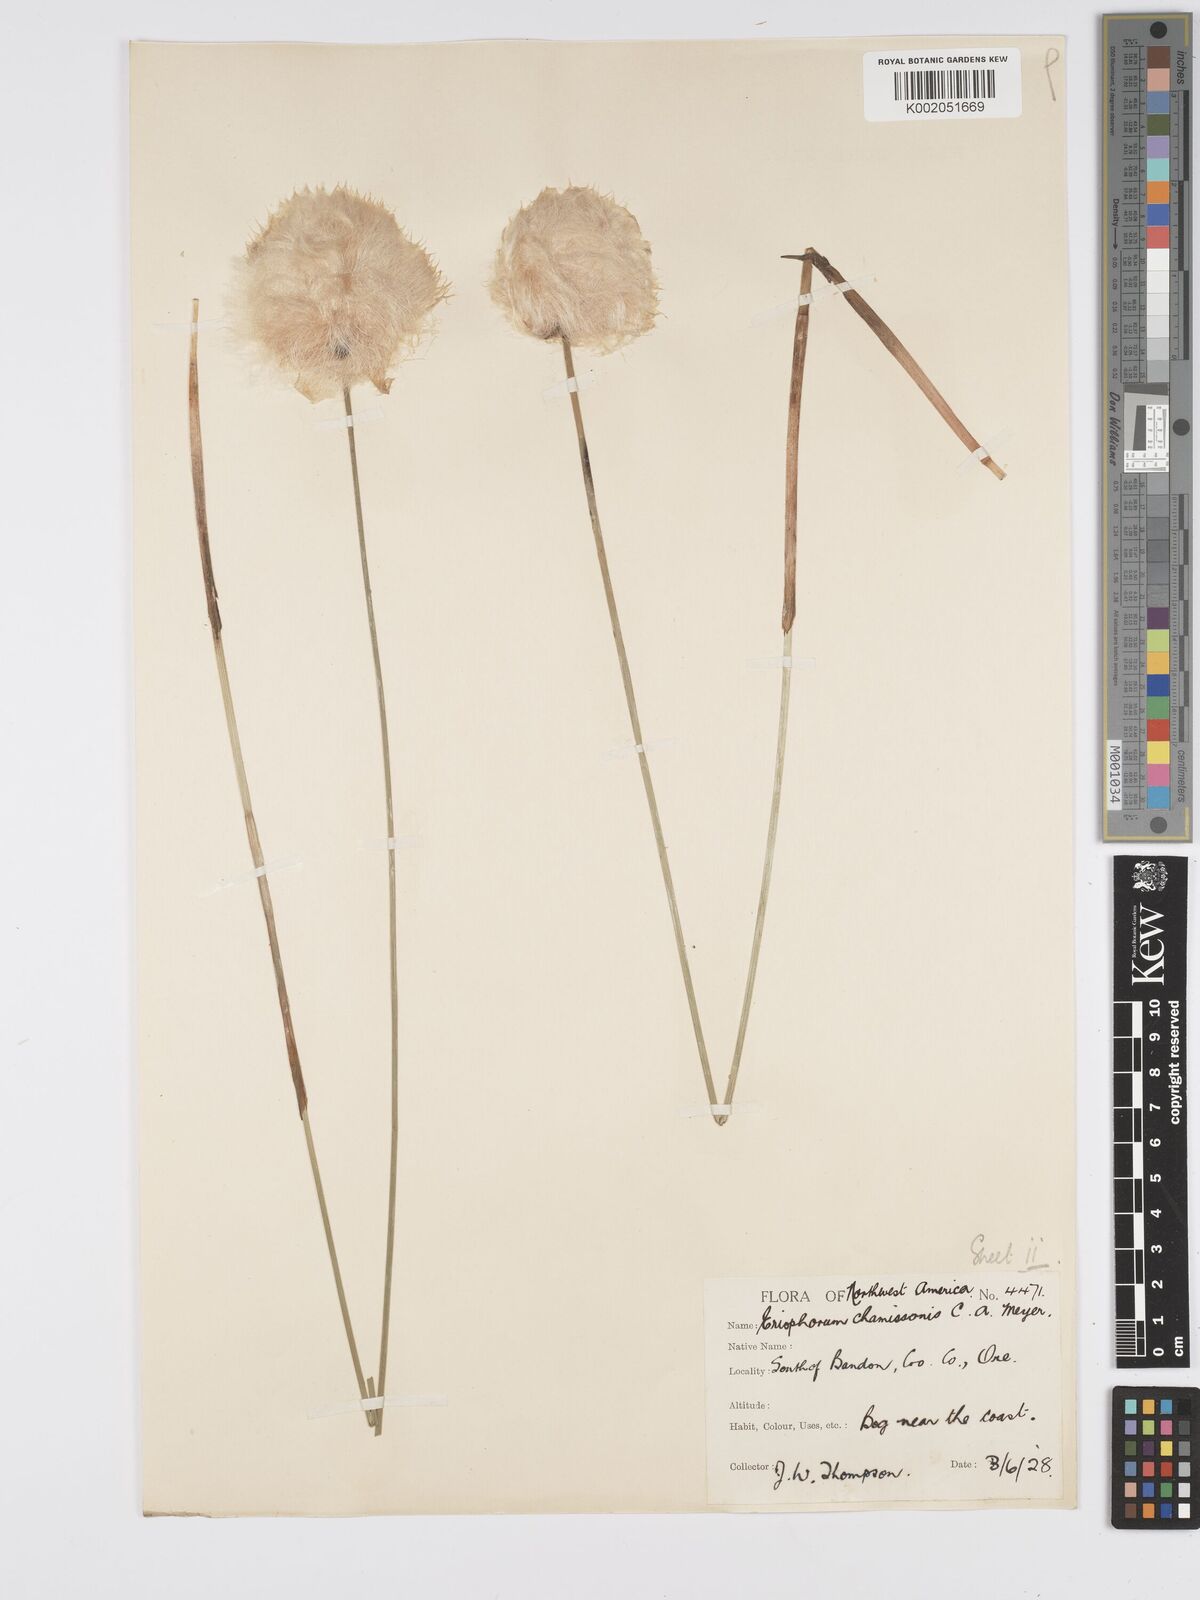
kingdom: Plantae
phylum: Tracheophyta
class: Liliopsida
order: Poales
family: Cyperaceae
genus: Eriophorum
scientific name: Eriophorum chamissonis
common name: Chamisso's cottongrass
